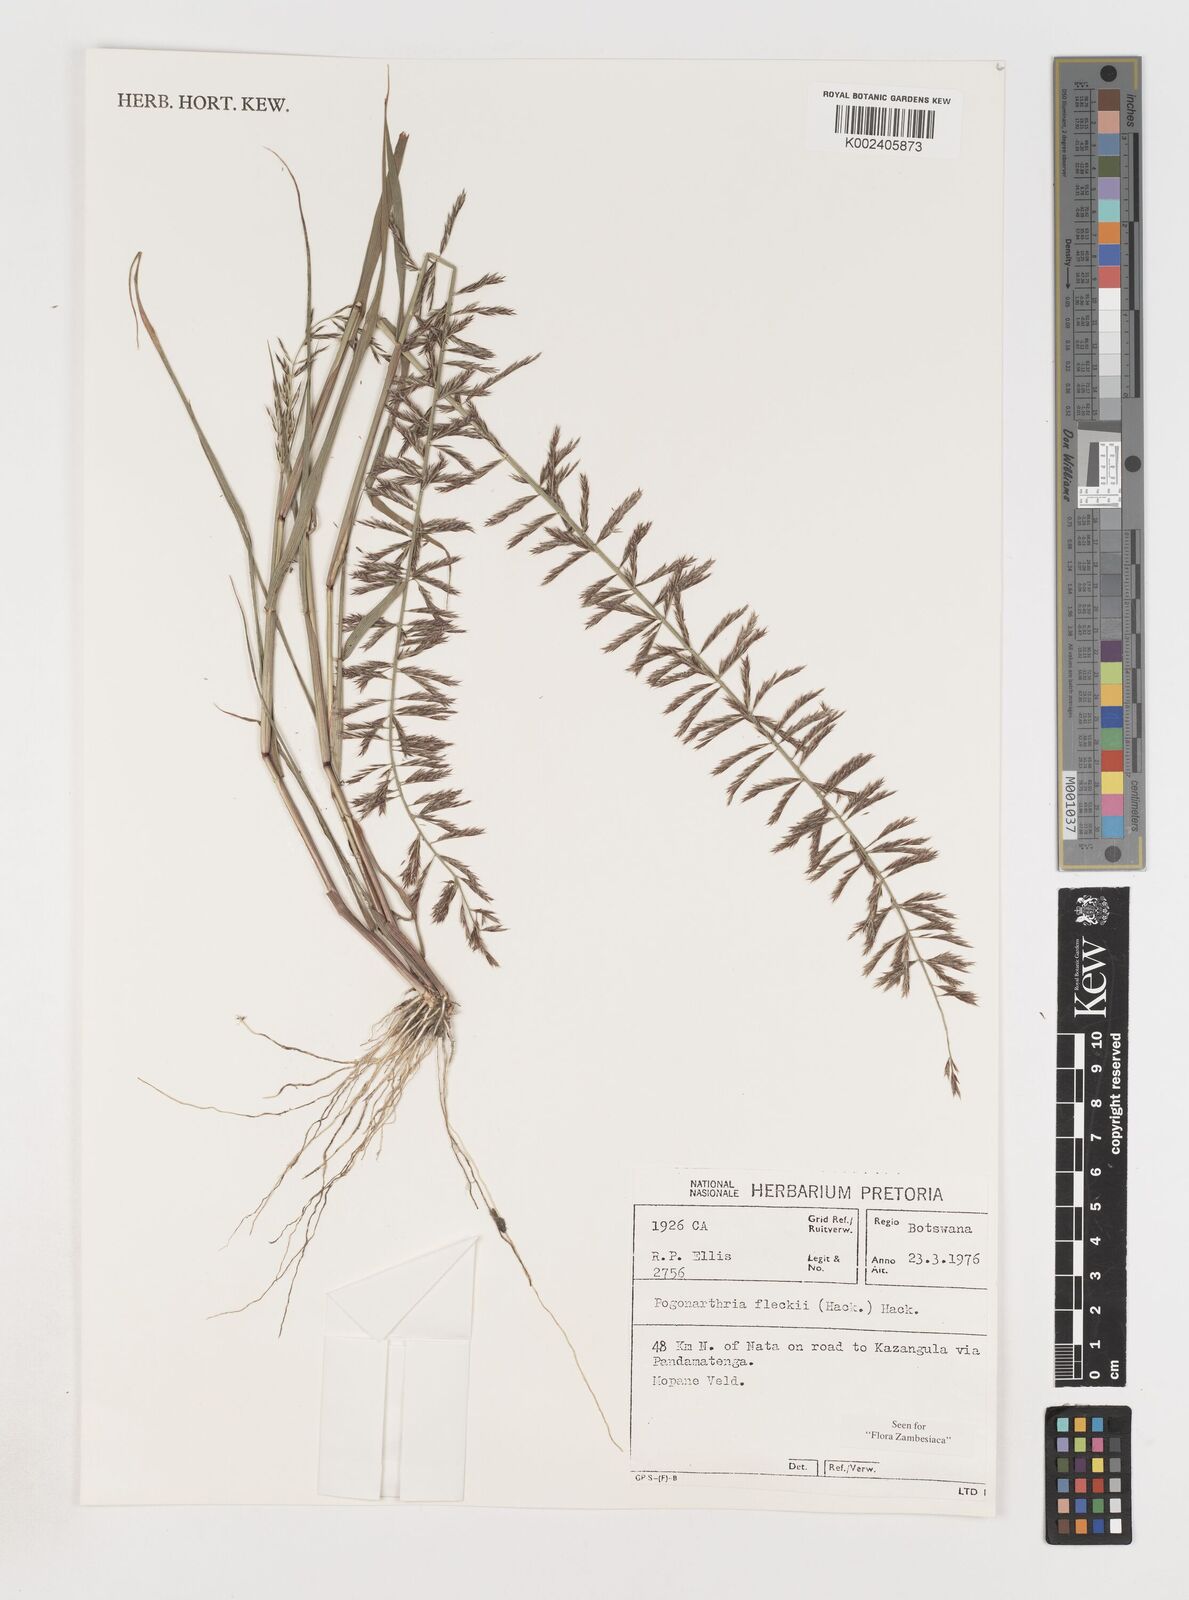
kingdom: Plantae
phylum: Tracheophyta
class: Liliopsida
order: Poales
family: Poaceae
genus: Pogonarthria
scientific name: Pogonarthria fleckii
